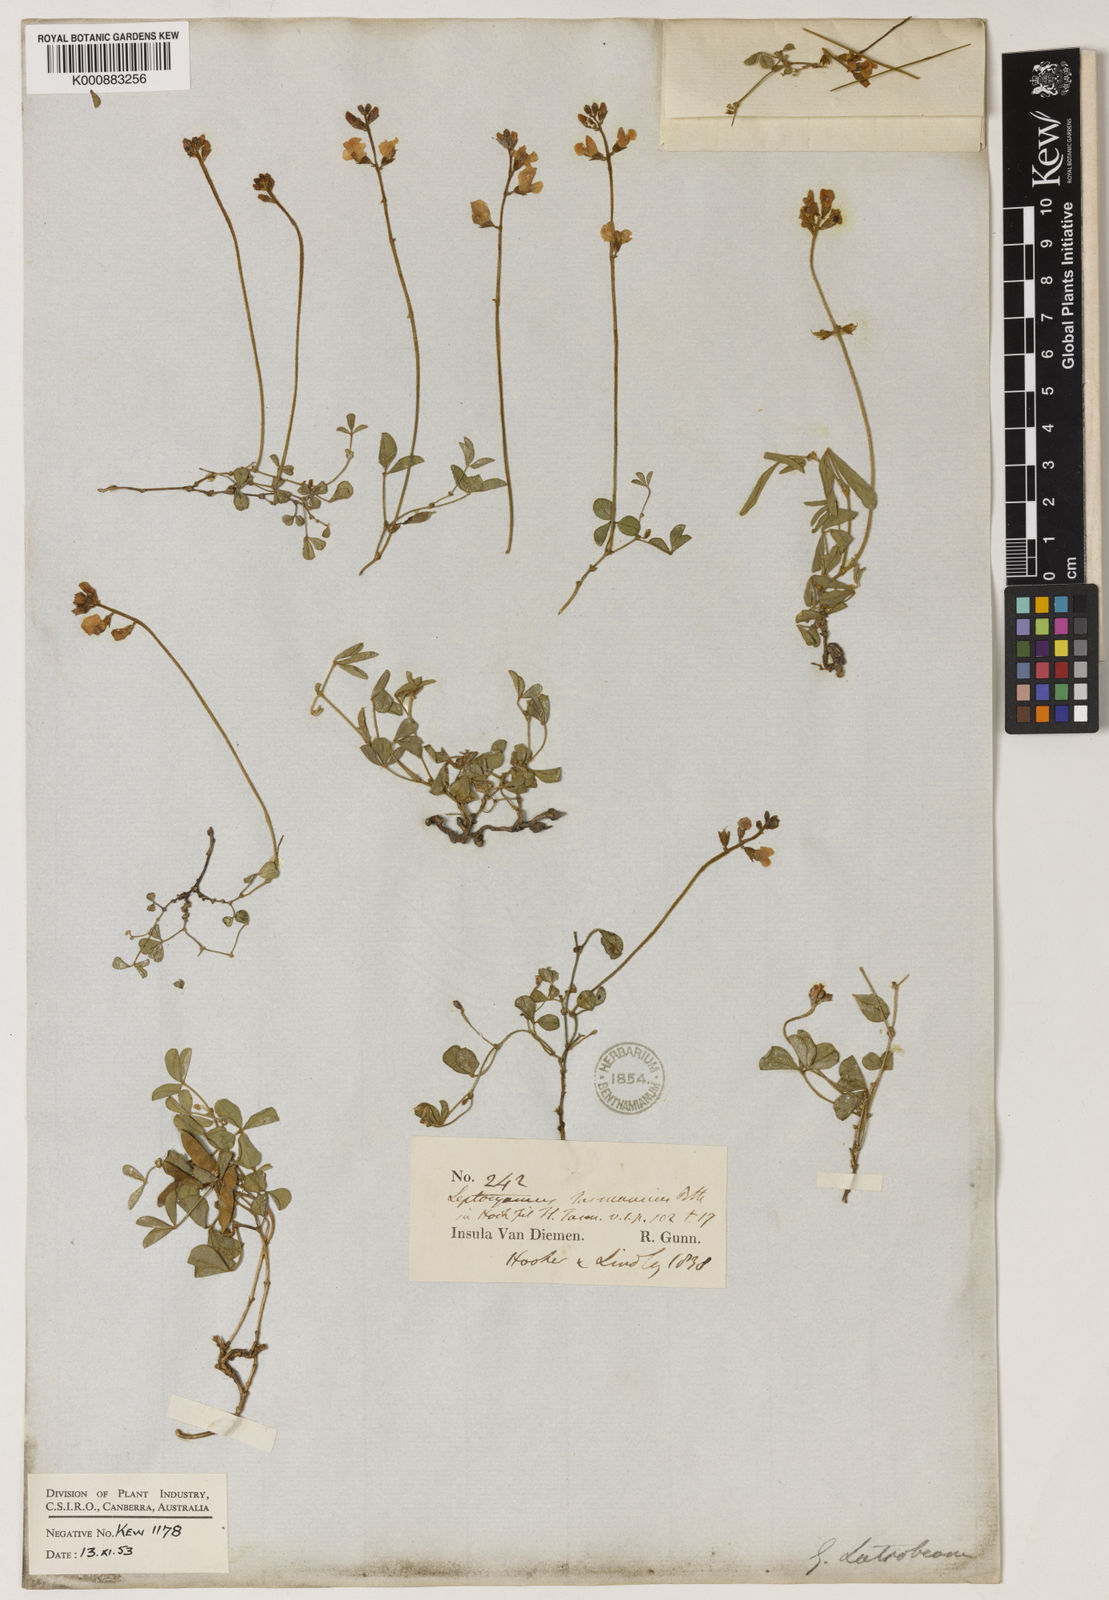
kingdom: Plantae
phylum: Tracheophyta
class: Magnoliopsida
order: Fabales
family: Fabaceae
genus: Glycine
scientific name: Glycine latrobeana
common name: Clover glycine
